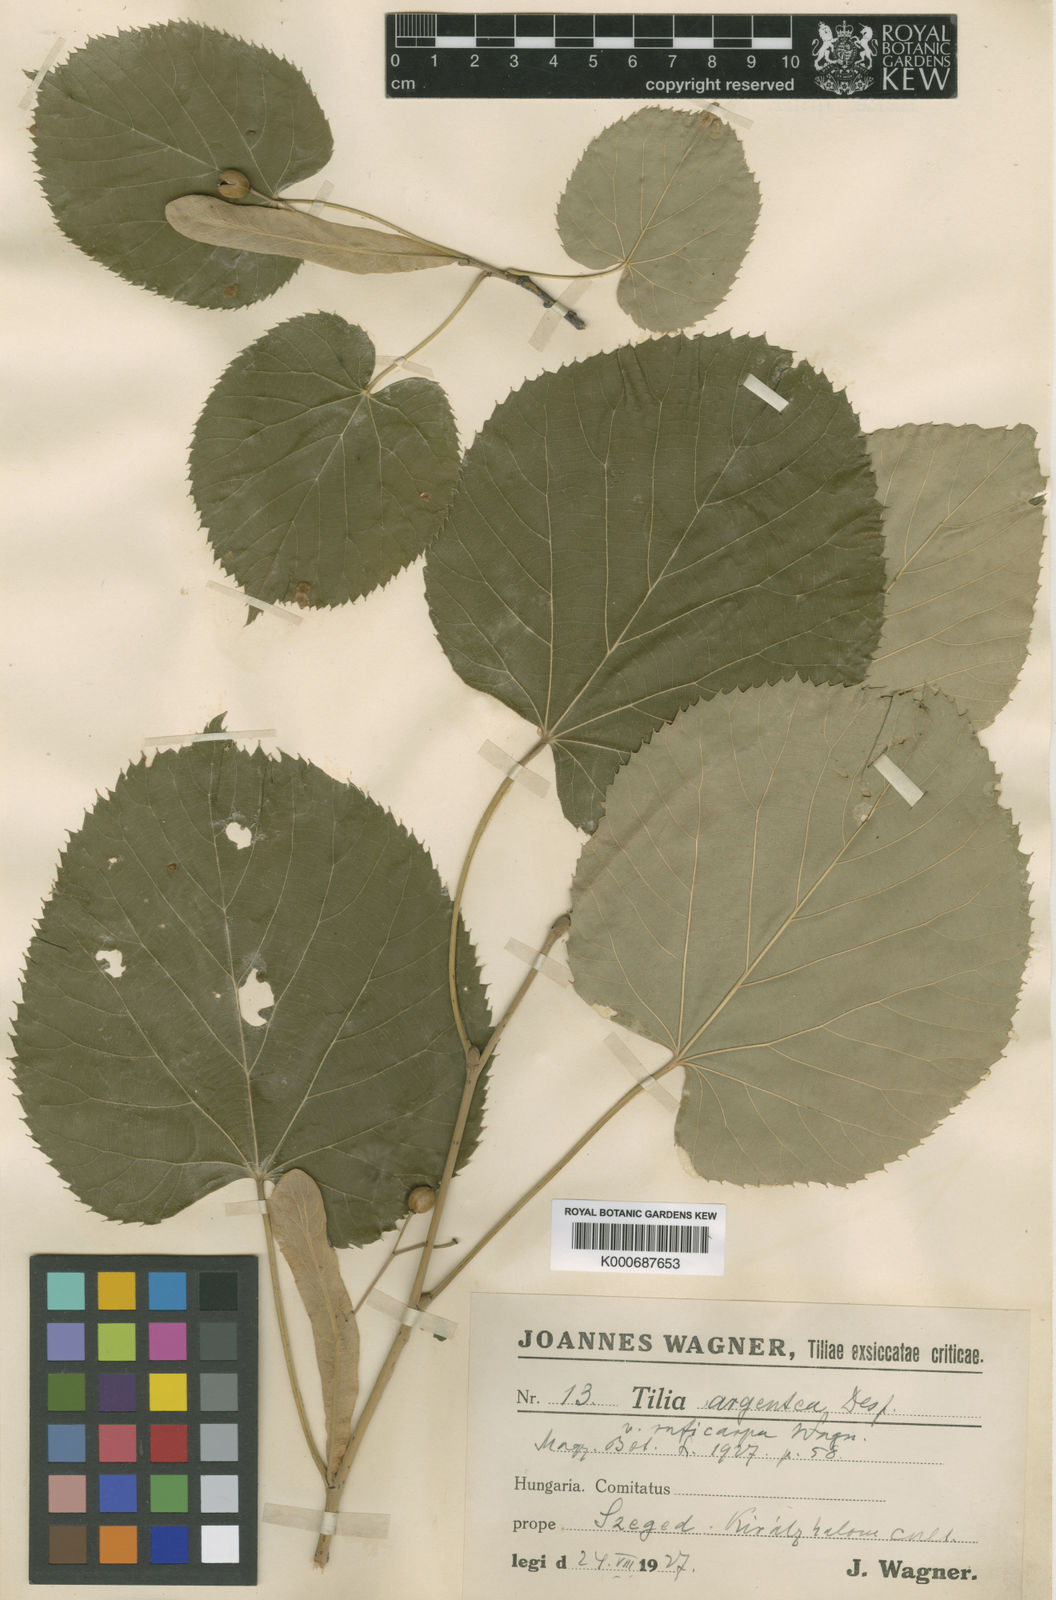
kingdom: Plantae
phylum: Tracheophyta
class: Magnoliopsida
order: Malvales
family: Malvaceae
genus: Tilia
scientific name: Tilia tomentosa
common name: Silver lime
